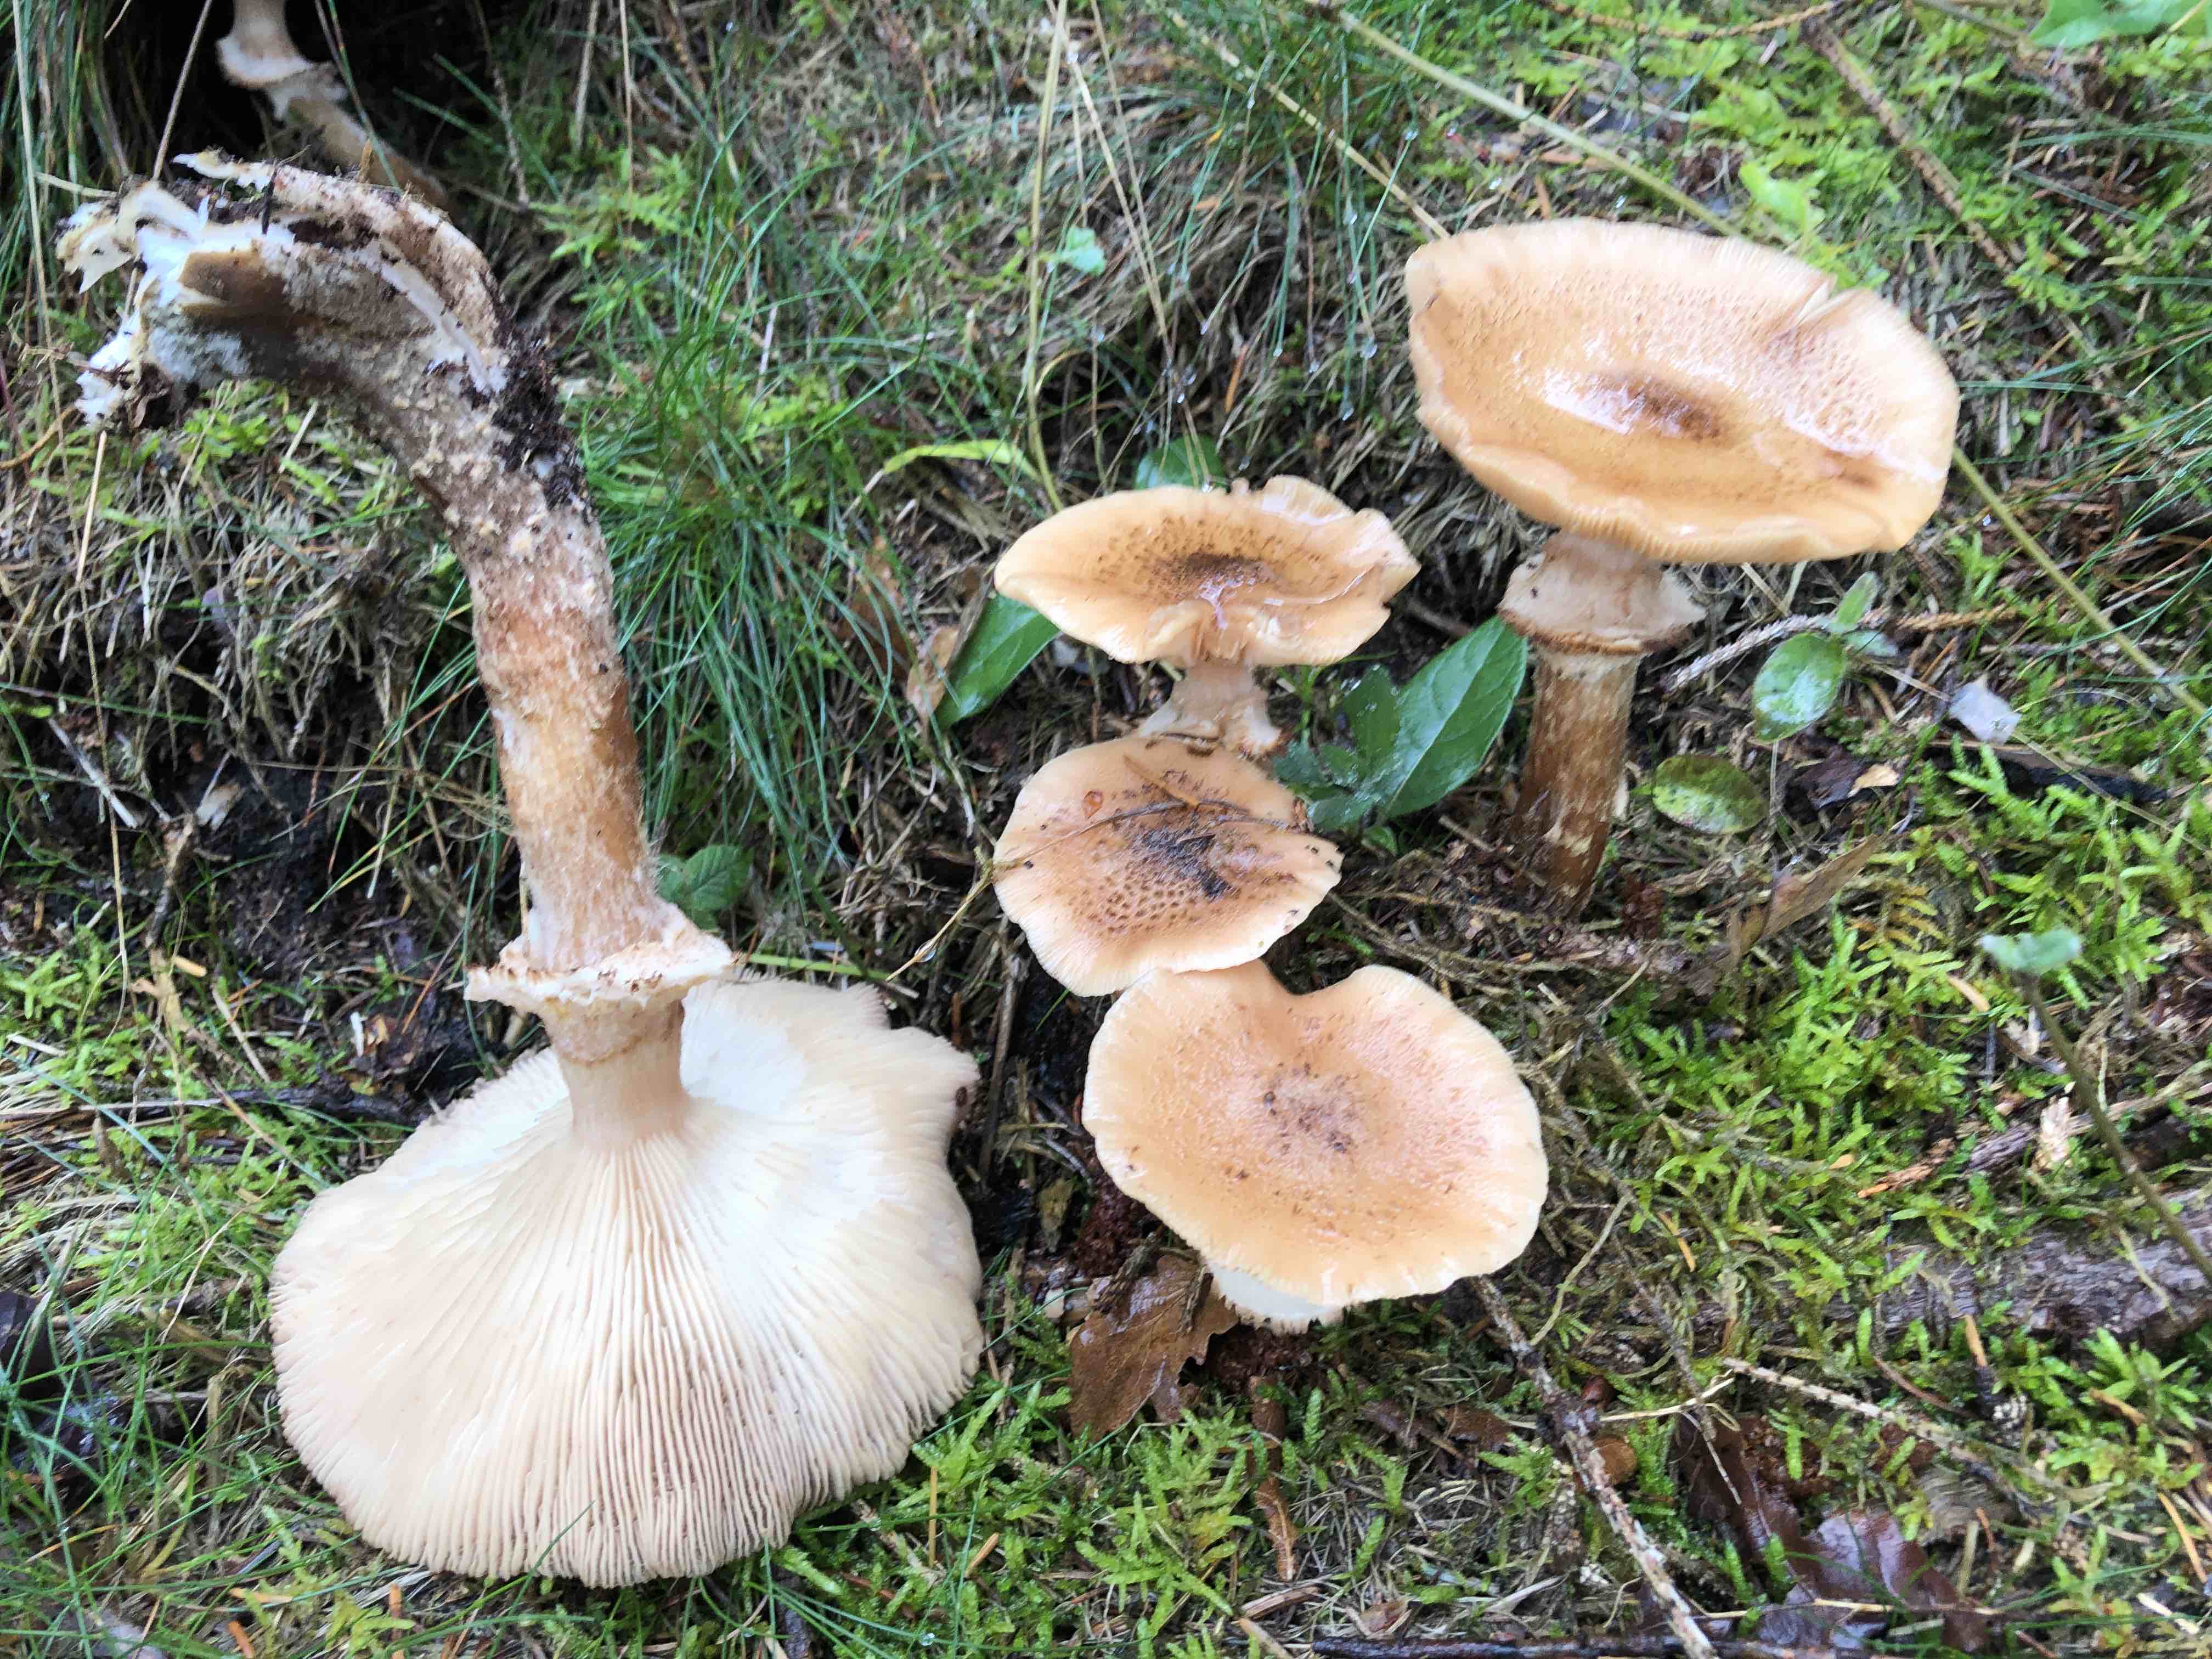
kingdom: Fungi
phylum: Basidiomycota
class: Agaricomycetes
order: Agaricales
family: Physalacriaceae
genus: Armillaria
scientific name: Armillaria ostoyae
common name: mørk honningsvamp
